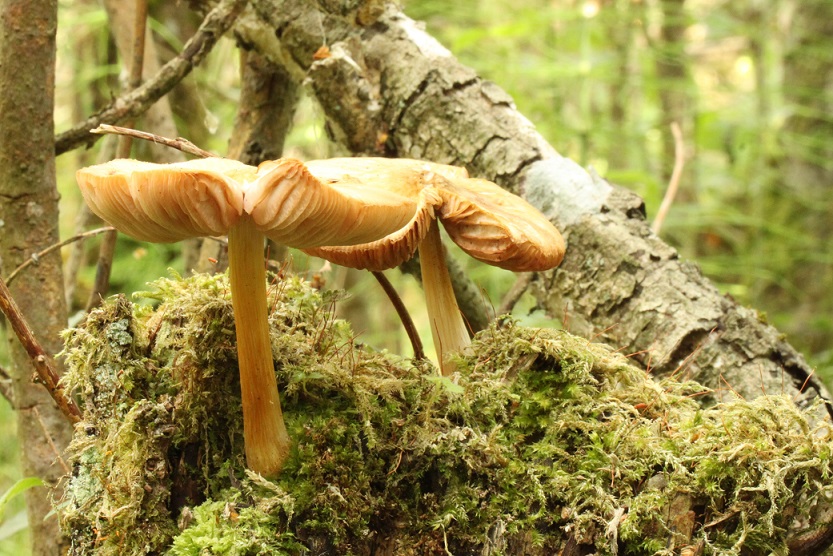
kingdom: Fungi
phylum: Basidiomycota
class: Agaricomycetes
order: Agaricales
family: Pluteaceae
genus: Pluteus
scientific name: Pluteus leoninus
